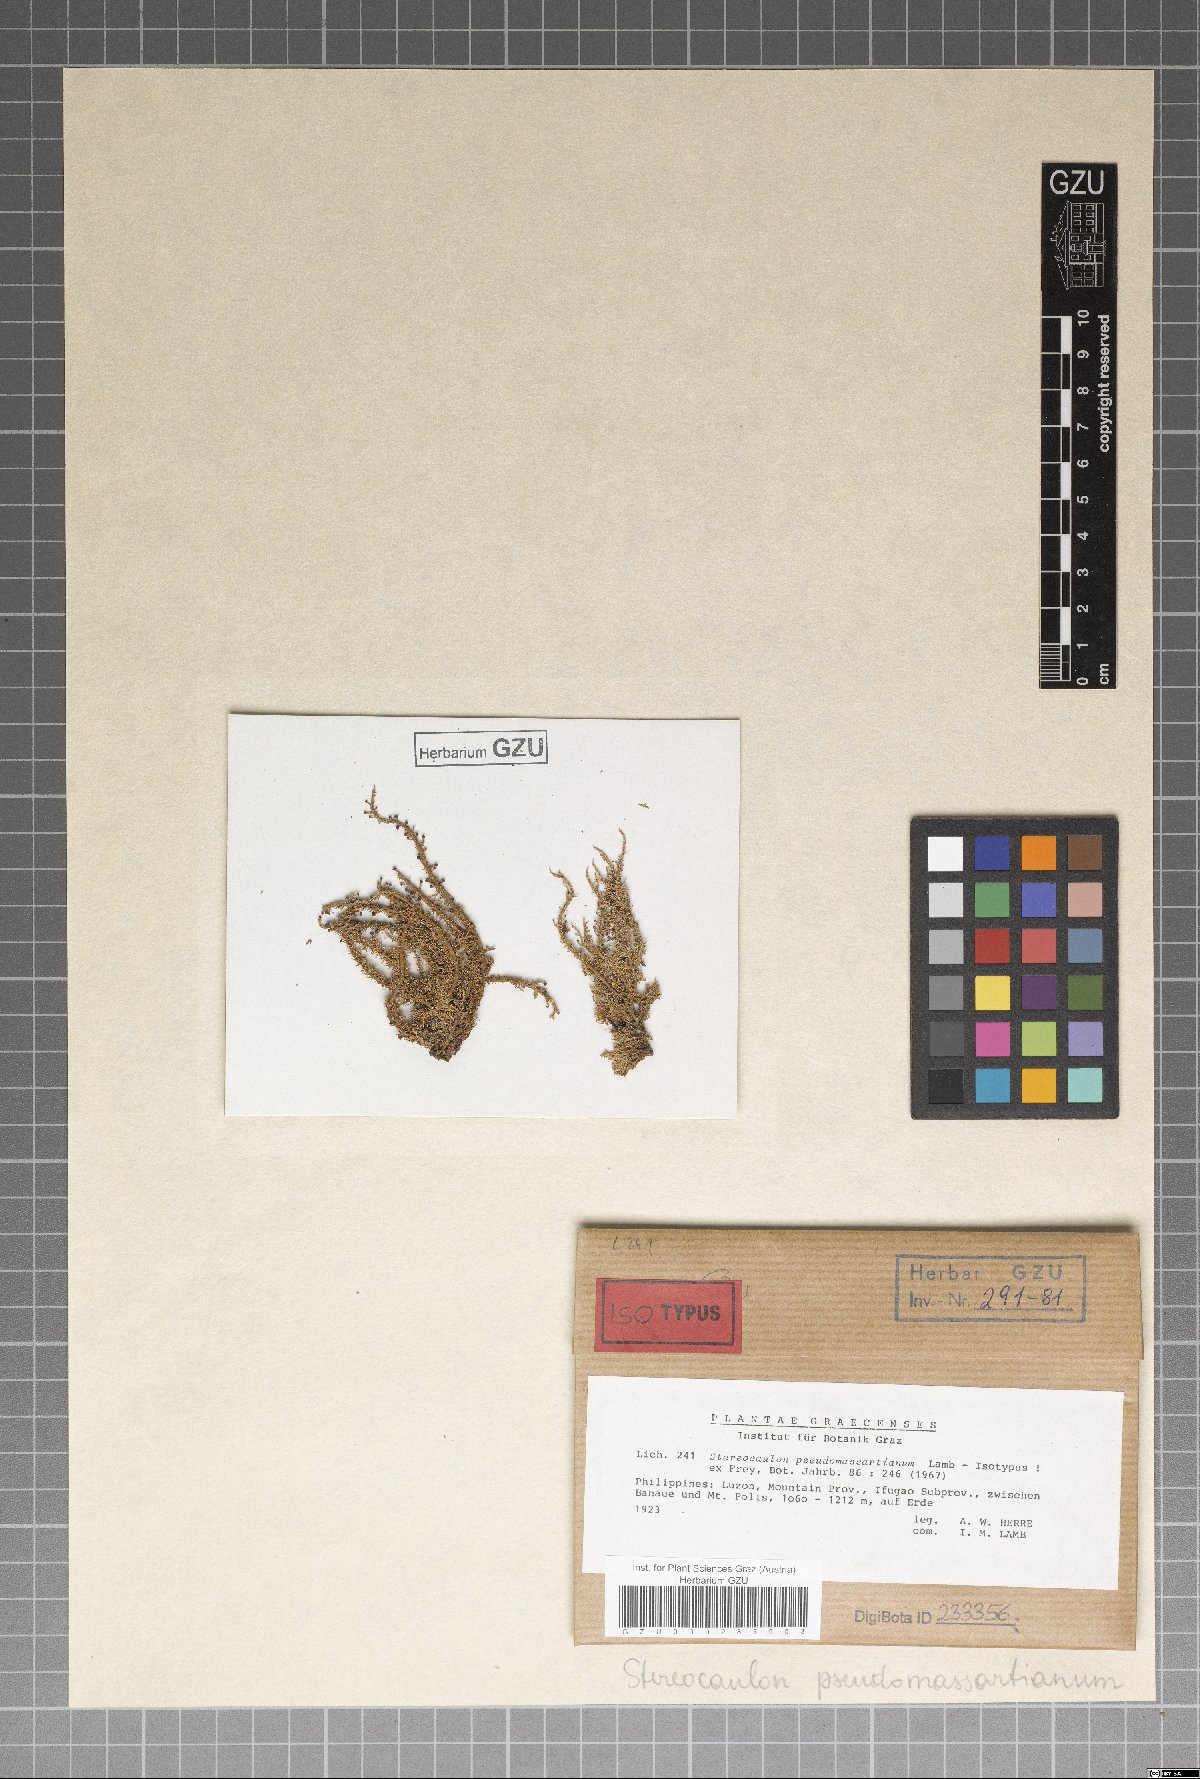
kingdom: Fungi
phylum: Ascomycota
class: Lecanoromycetes
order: Lecanorales
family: Stereocaulaceae
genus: Stereocaulon
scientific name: Stereocaulon pseudomassartianum
